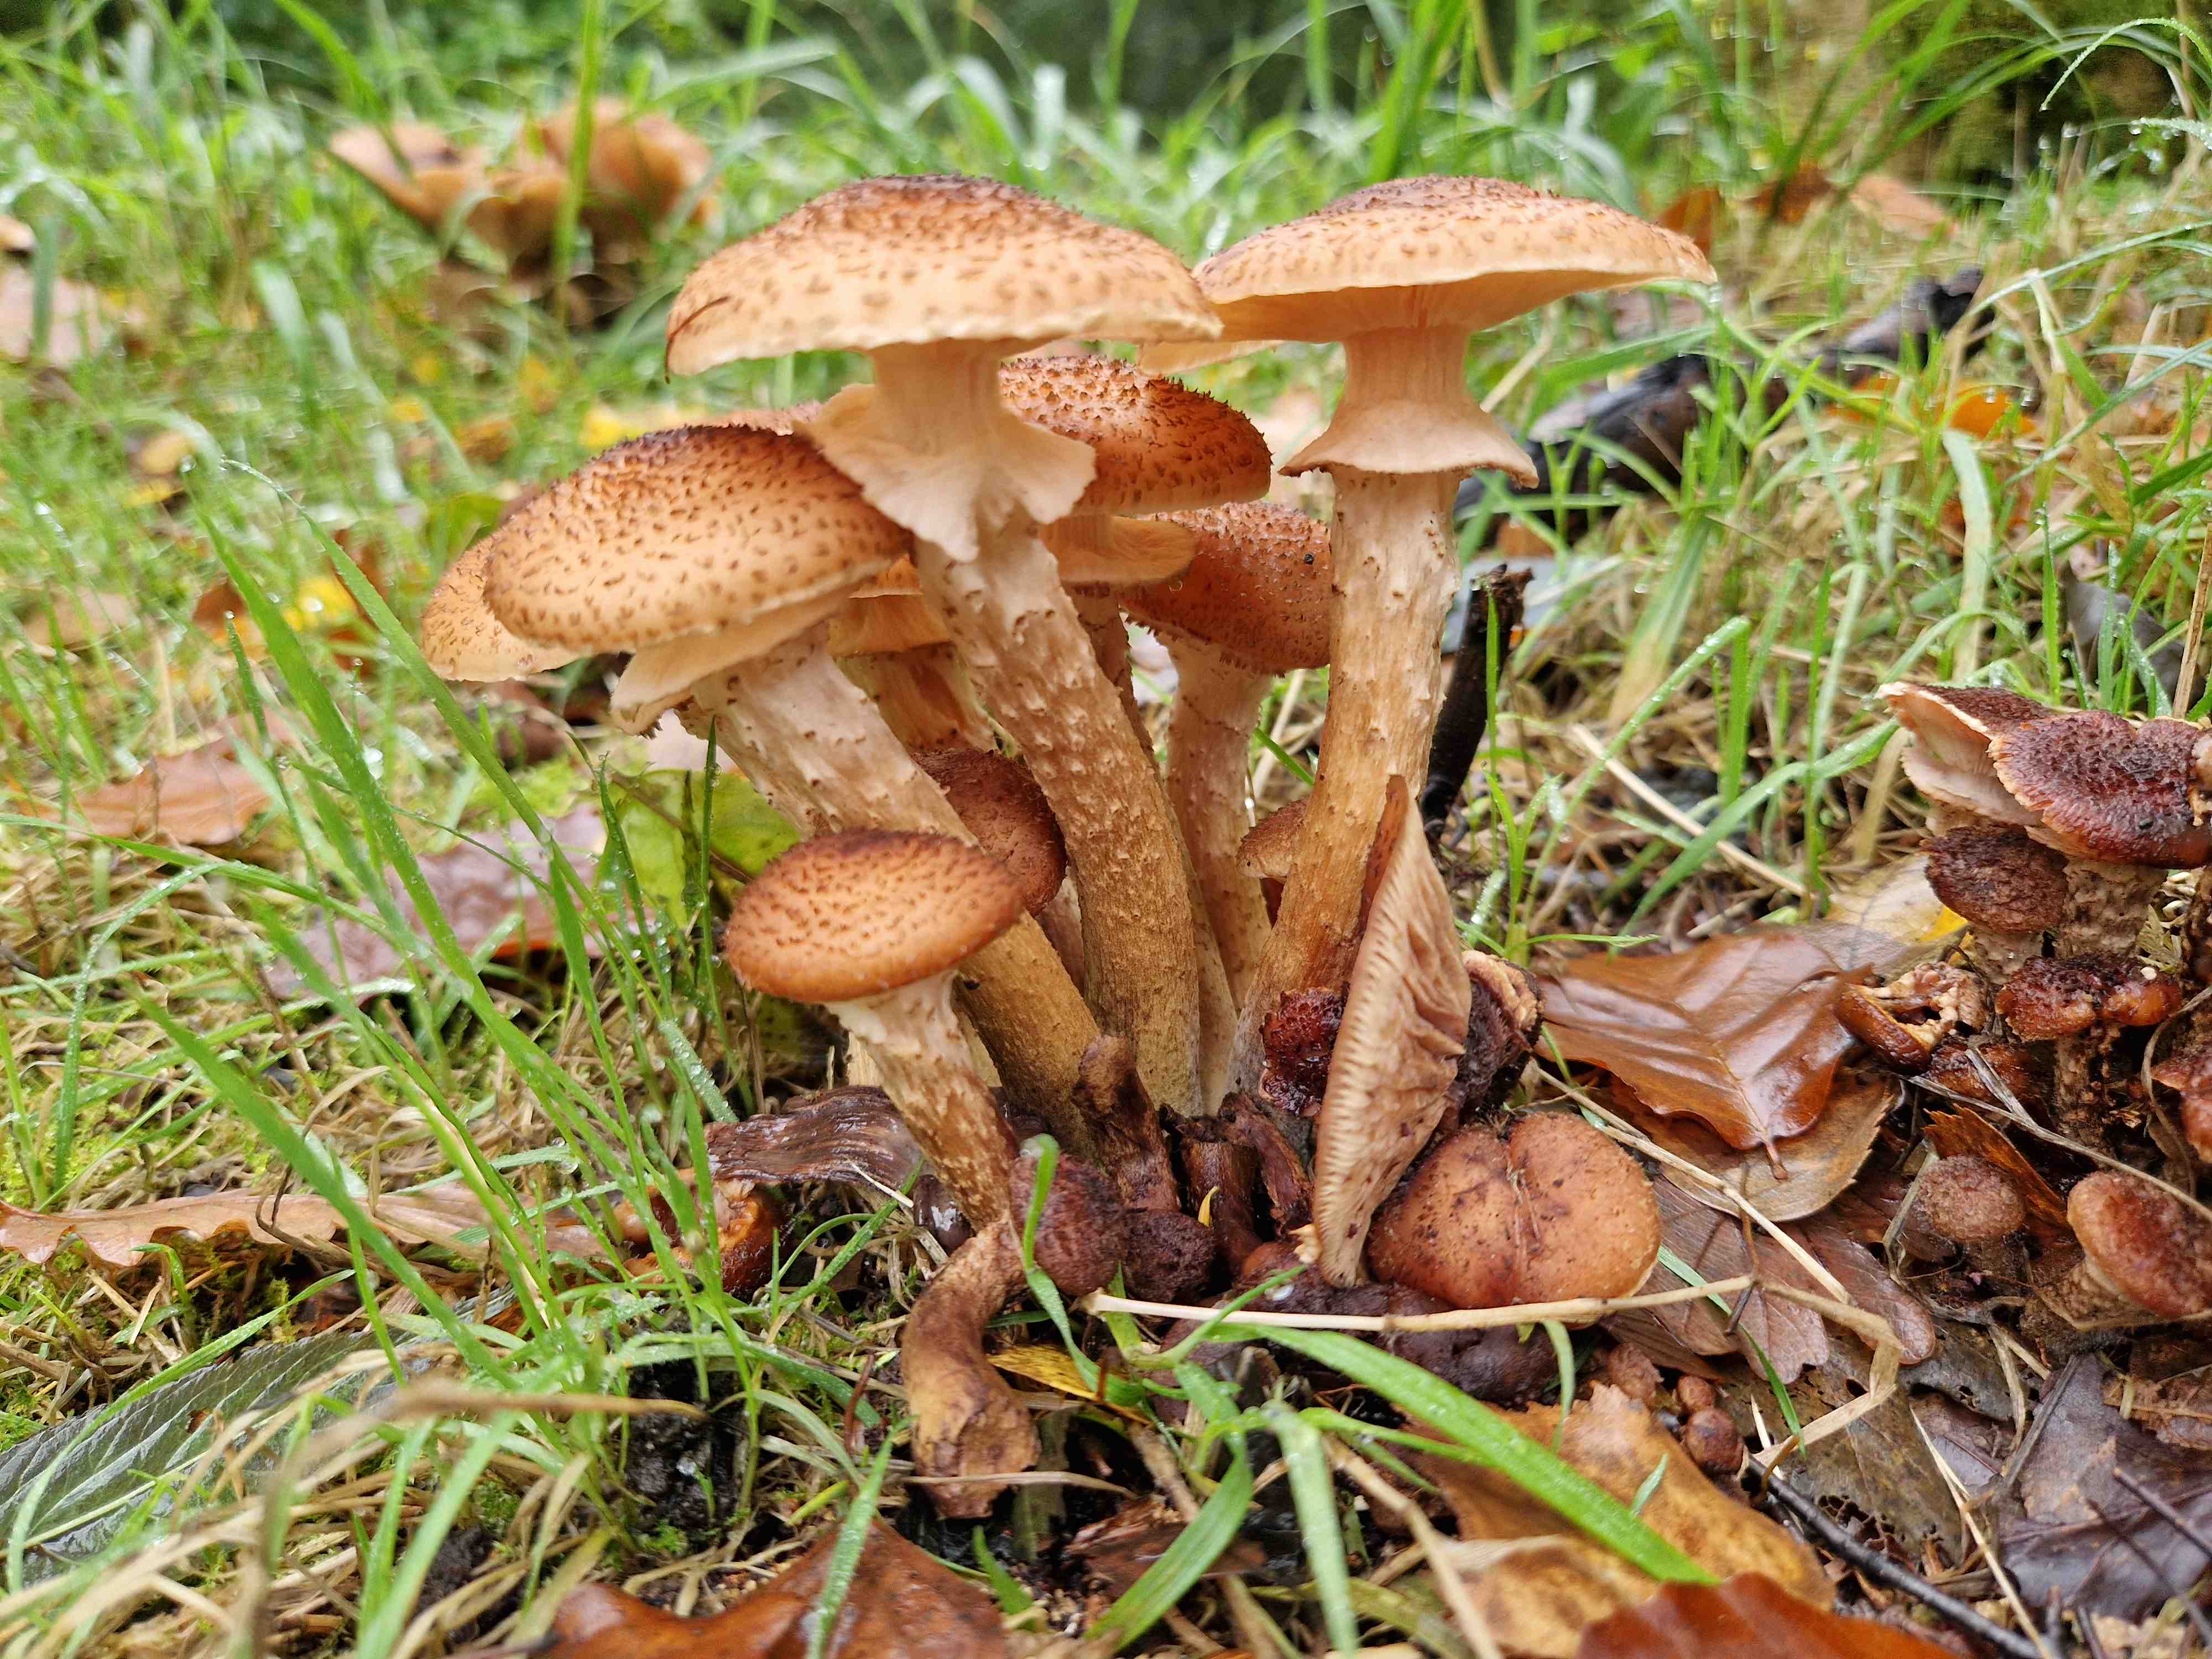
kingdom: Fungi
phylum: Basidiomycota
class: Agaricomycetes
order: Agaricales
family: Physalacriaceae
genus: Armillaria
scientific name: Armillaria ostoyae
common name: mørk honningsvamp
